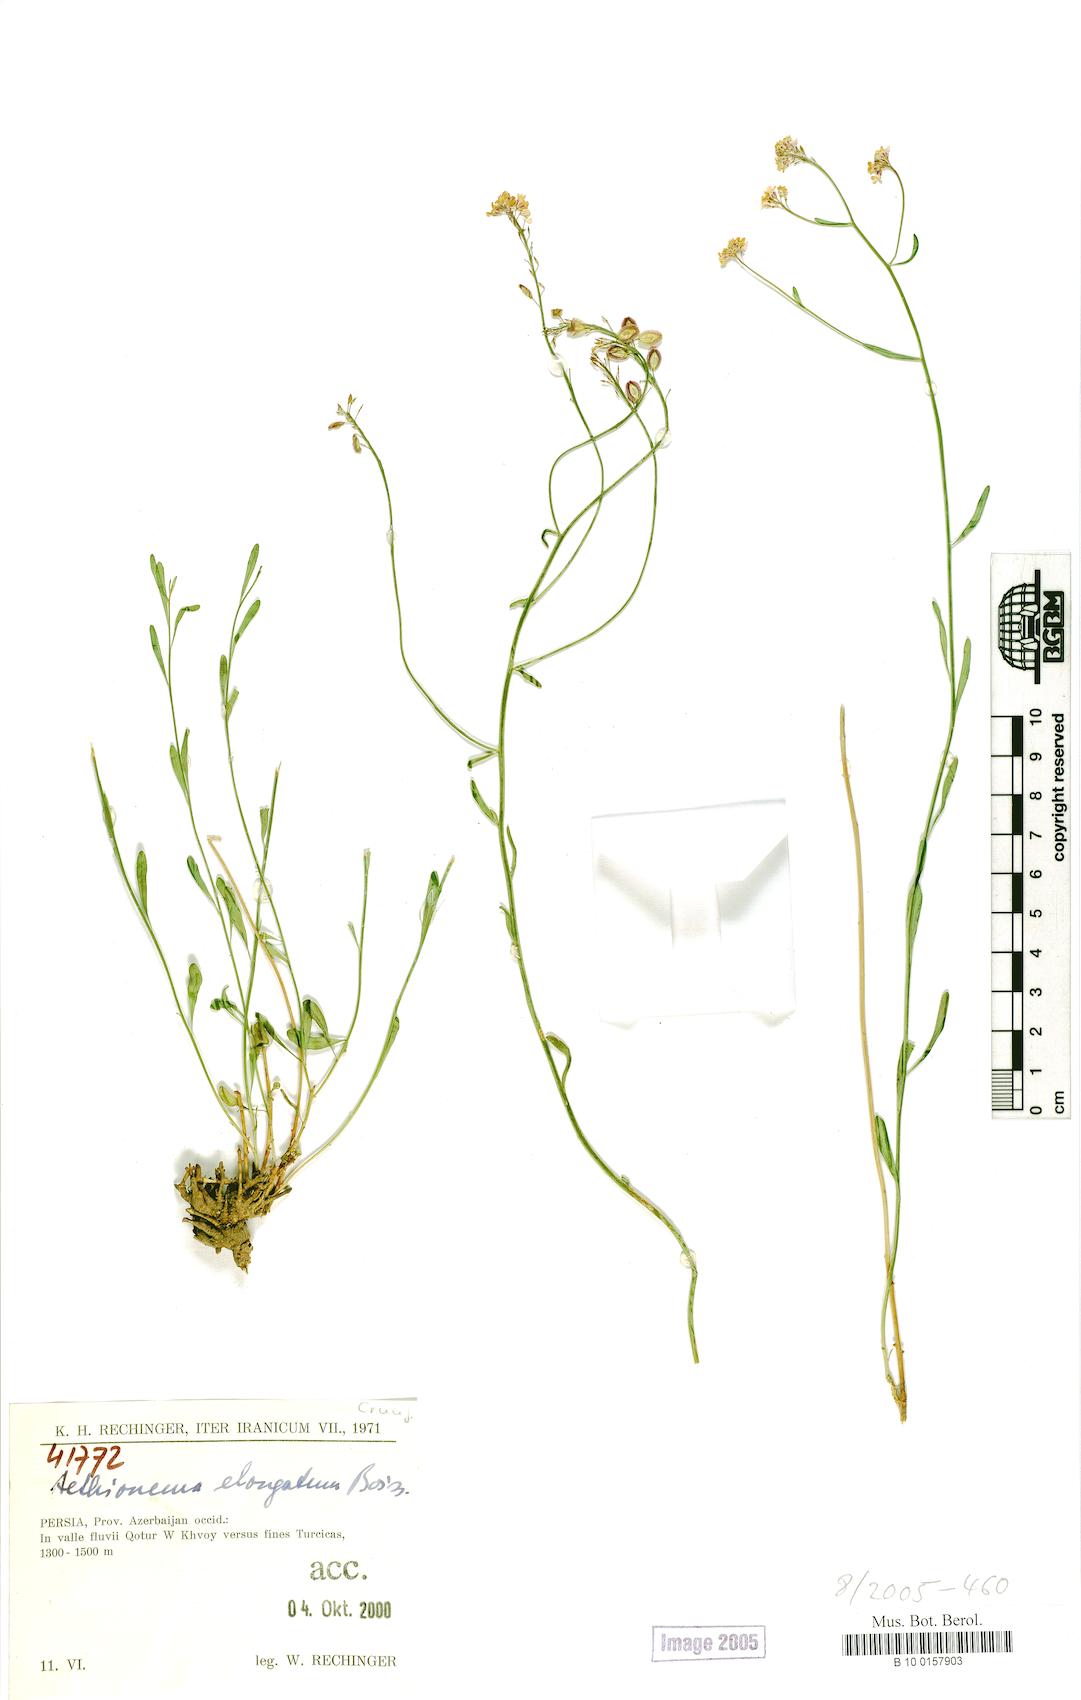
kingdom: Plantae
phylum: Tracheophyta
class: Magnoliopsida
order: Brassicales
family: Brassicaceae
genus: Aethionema
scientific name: Aethionema virgatum
